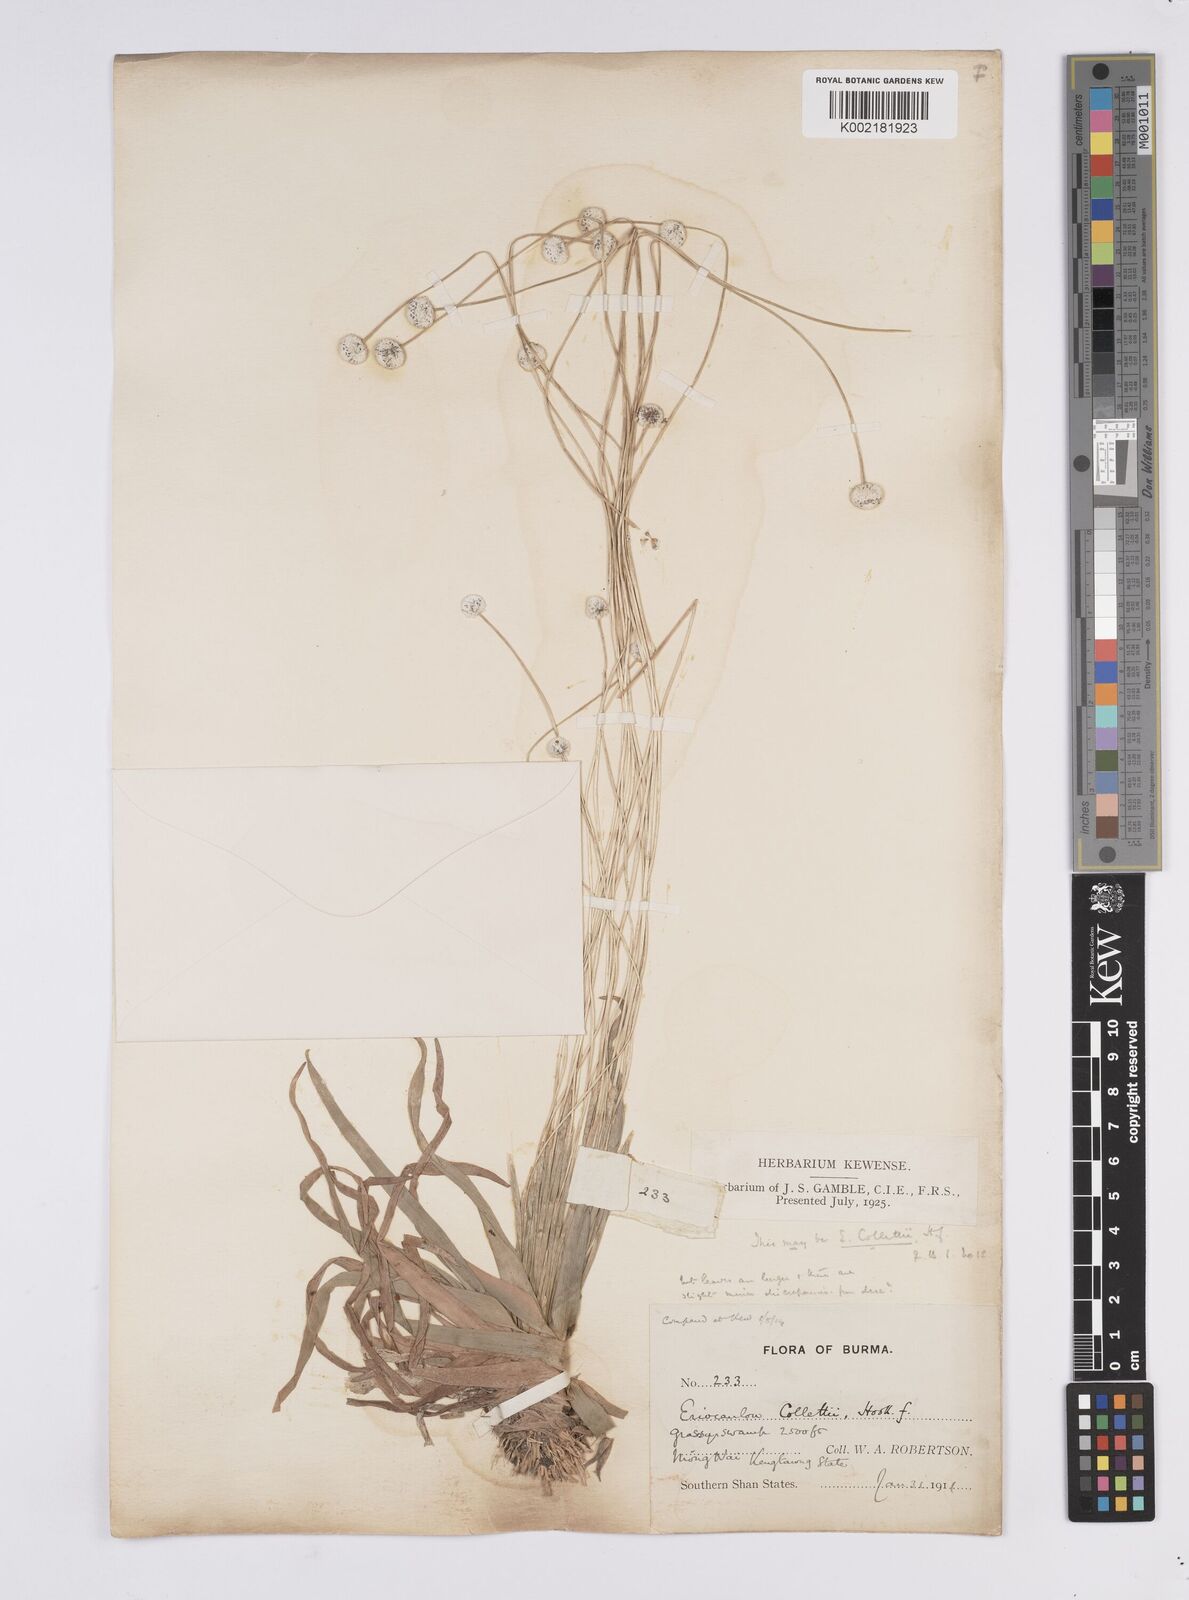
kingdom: Plantae
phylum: Tracheophyta
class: Liliopsida
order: Poales
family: Eriocaulaceae
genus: Eriocaulon
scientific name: Eriocaulon collettii
